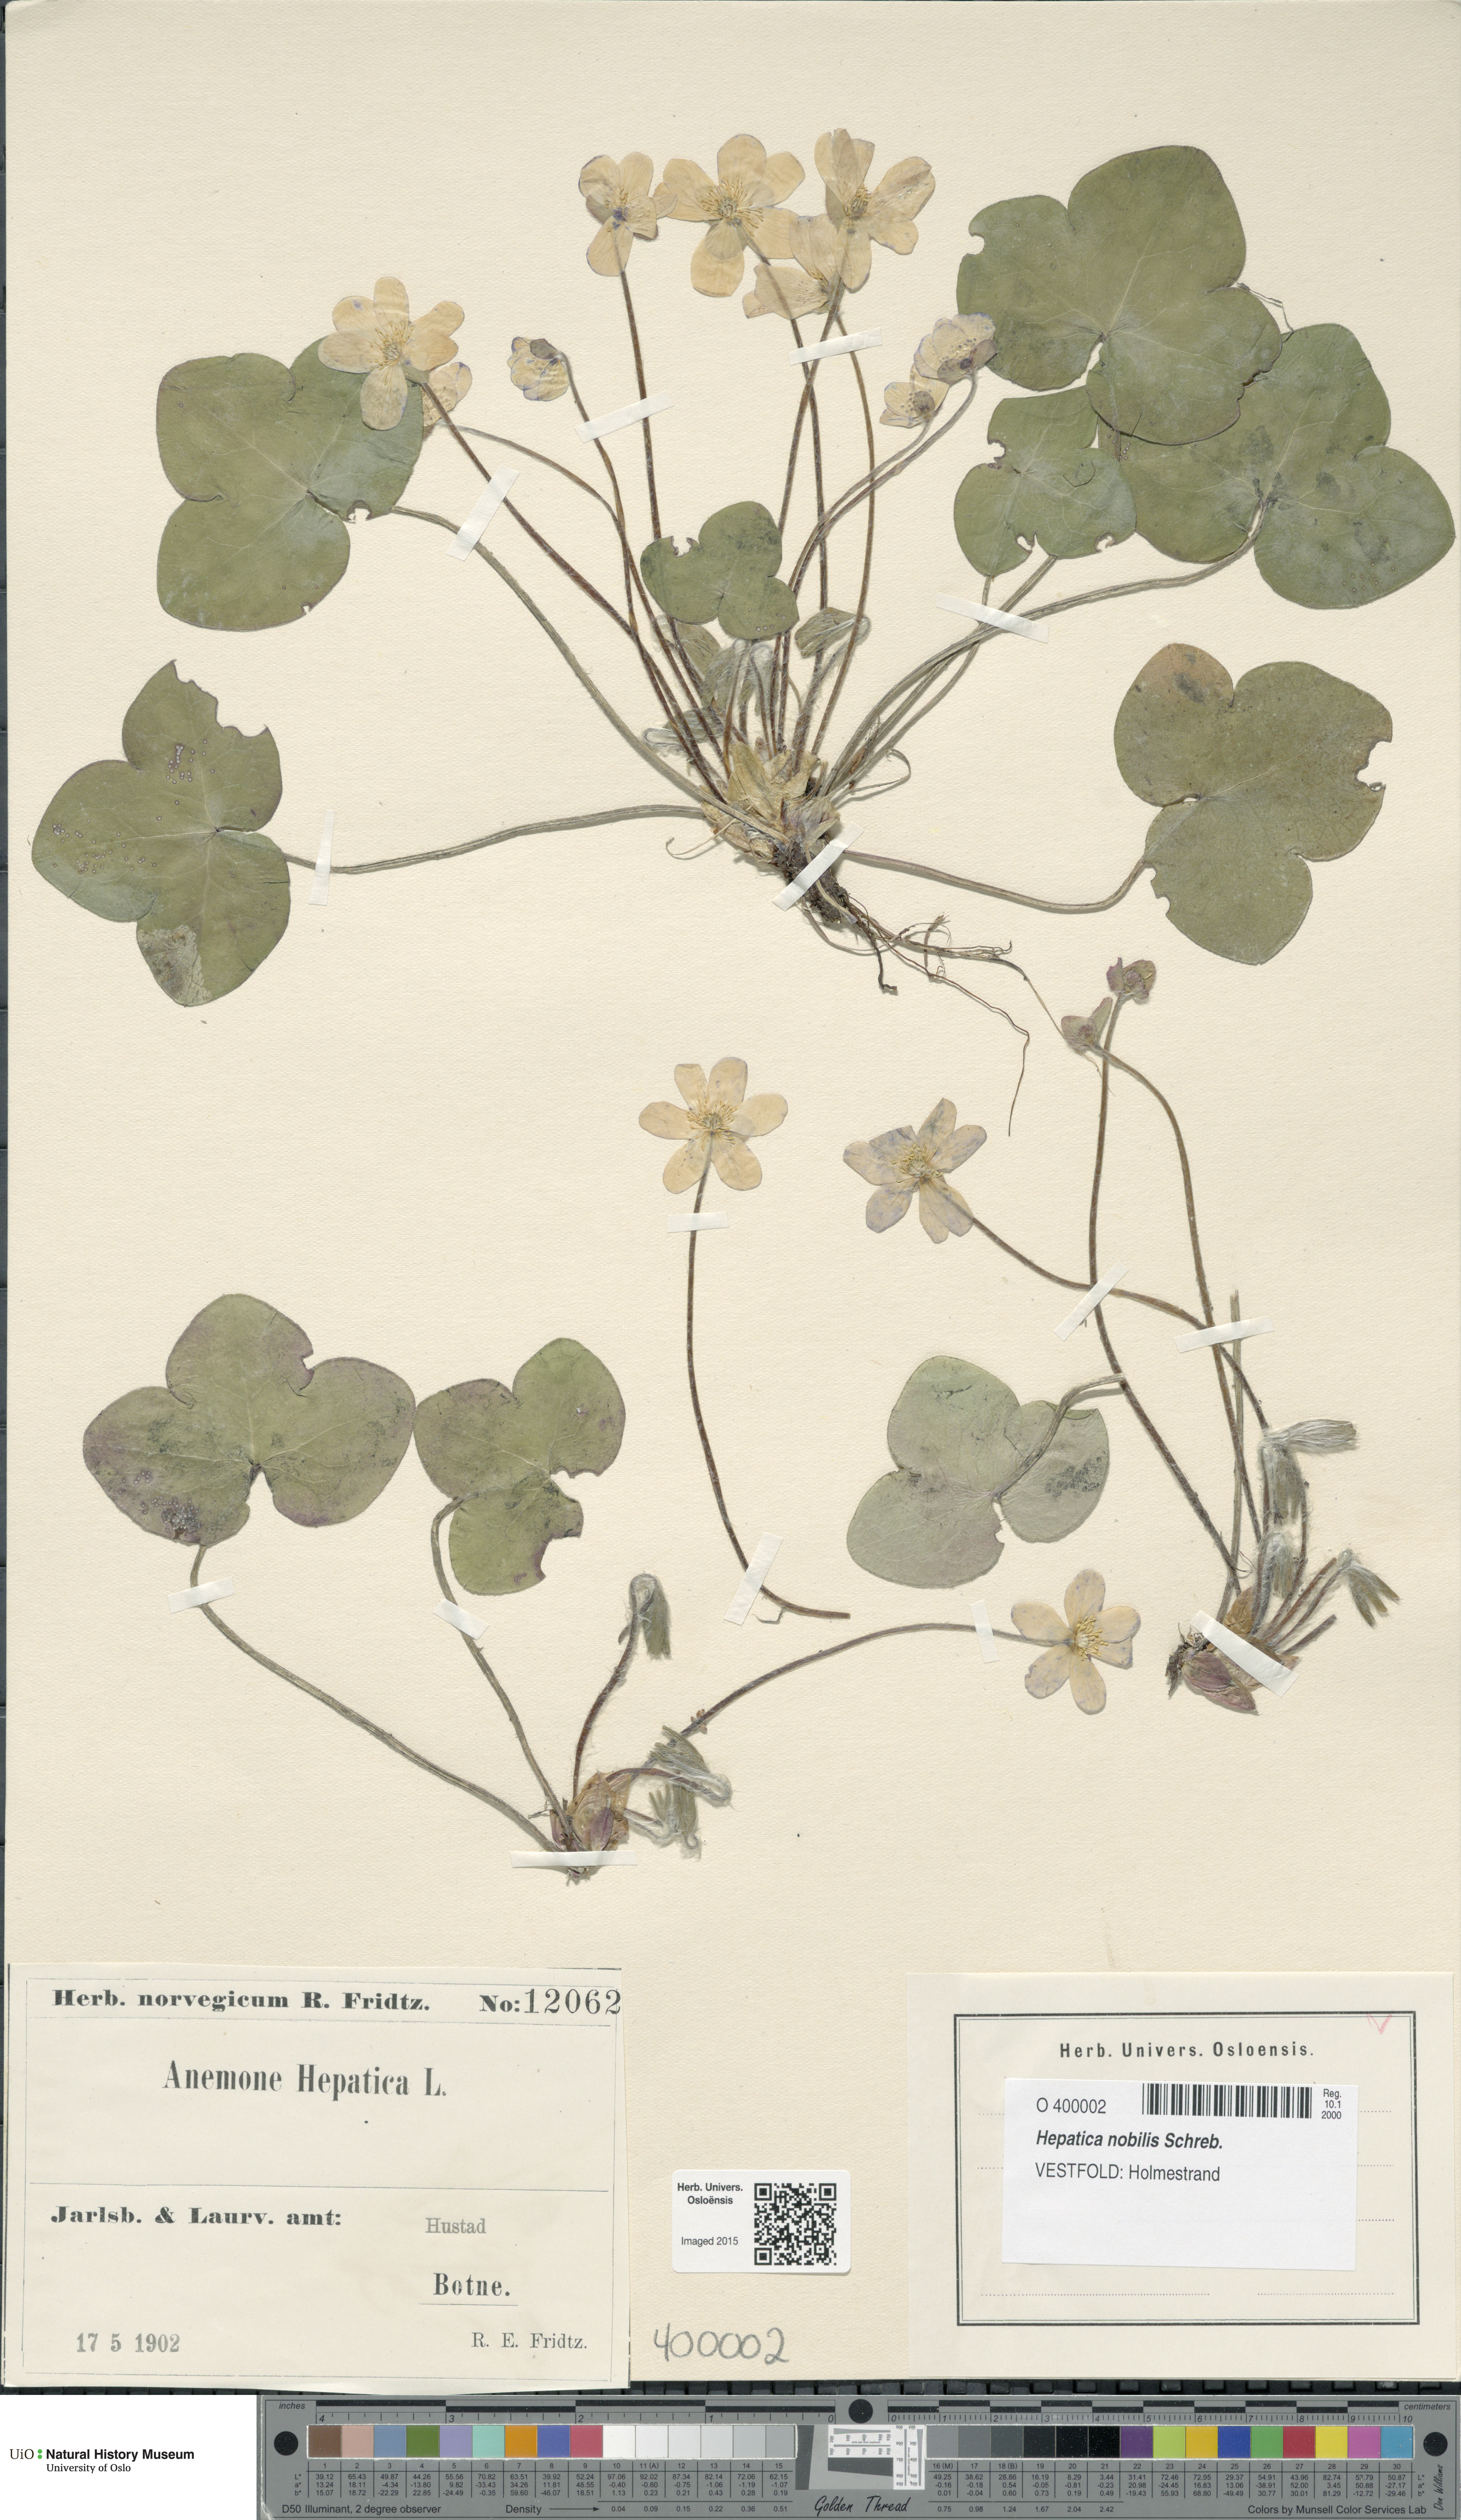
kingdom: Plantae
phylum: Tracheophyta
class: Magnoliopsida
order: Ranunculales
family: Ranunculaceae
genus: Hepatica
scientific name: Hepatica nobilis
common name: Liverleaf
